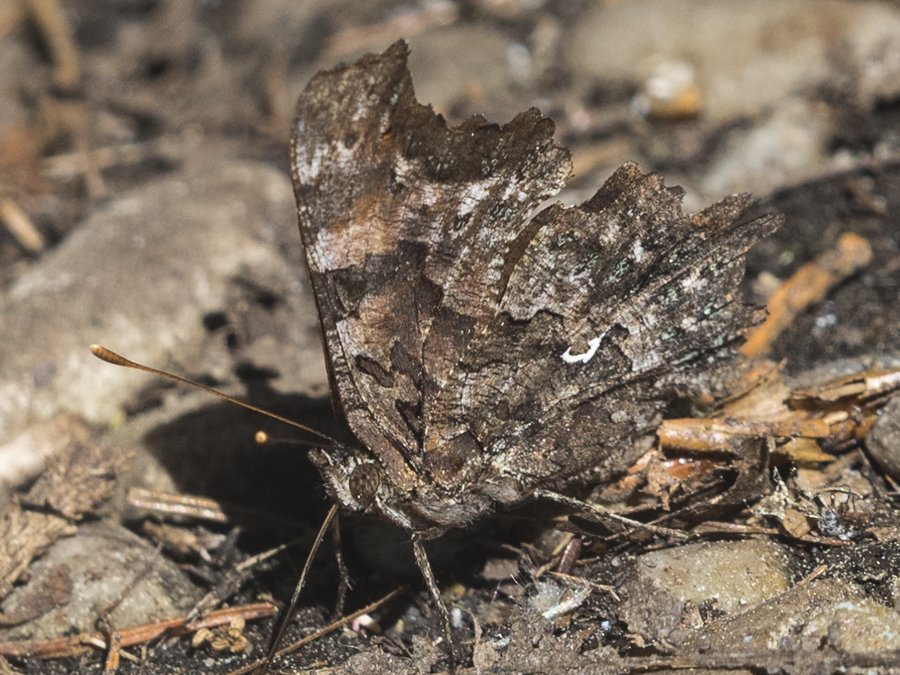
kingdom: Animalia
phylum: Arthropoda
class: Insecta
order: Lepidoptera
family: Nymphalidae
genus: Polygonia
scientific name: Polygonia faunus
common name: Green Comma
